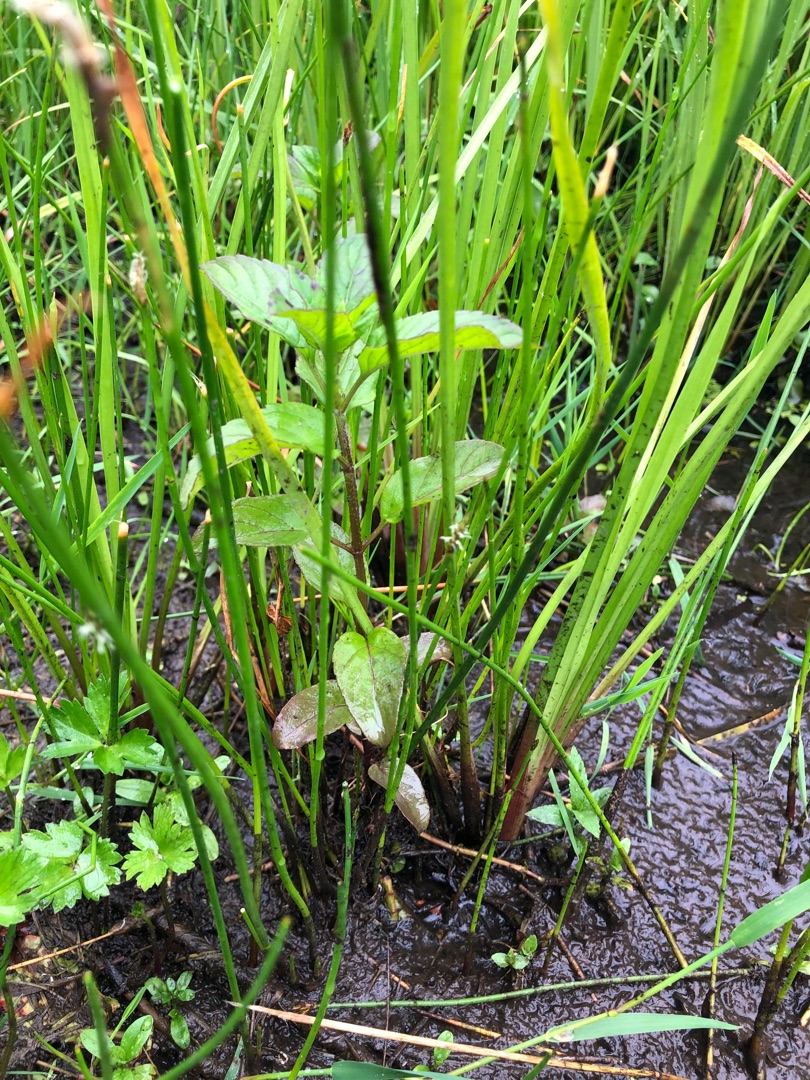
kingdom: Plantae
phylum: Tracheophyta
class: Magnoliopsida
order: Lamiales
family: Lamiaceae
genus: Mentha
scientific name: Mentha aquatica
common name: Vand-mynte
